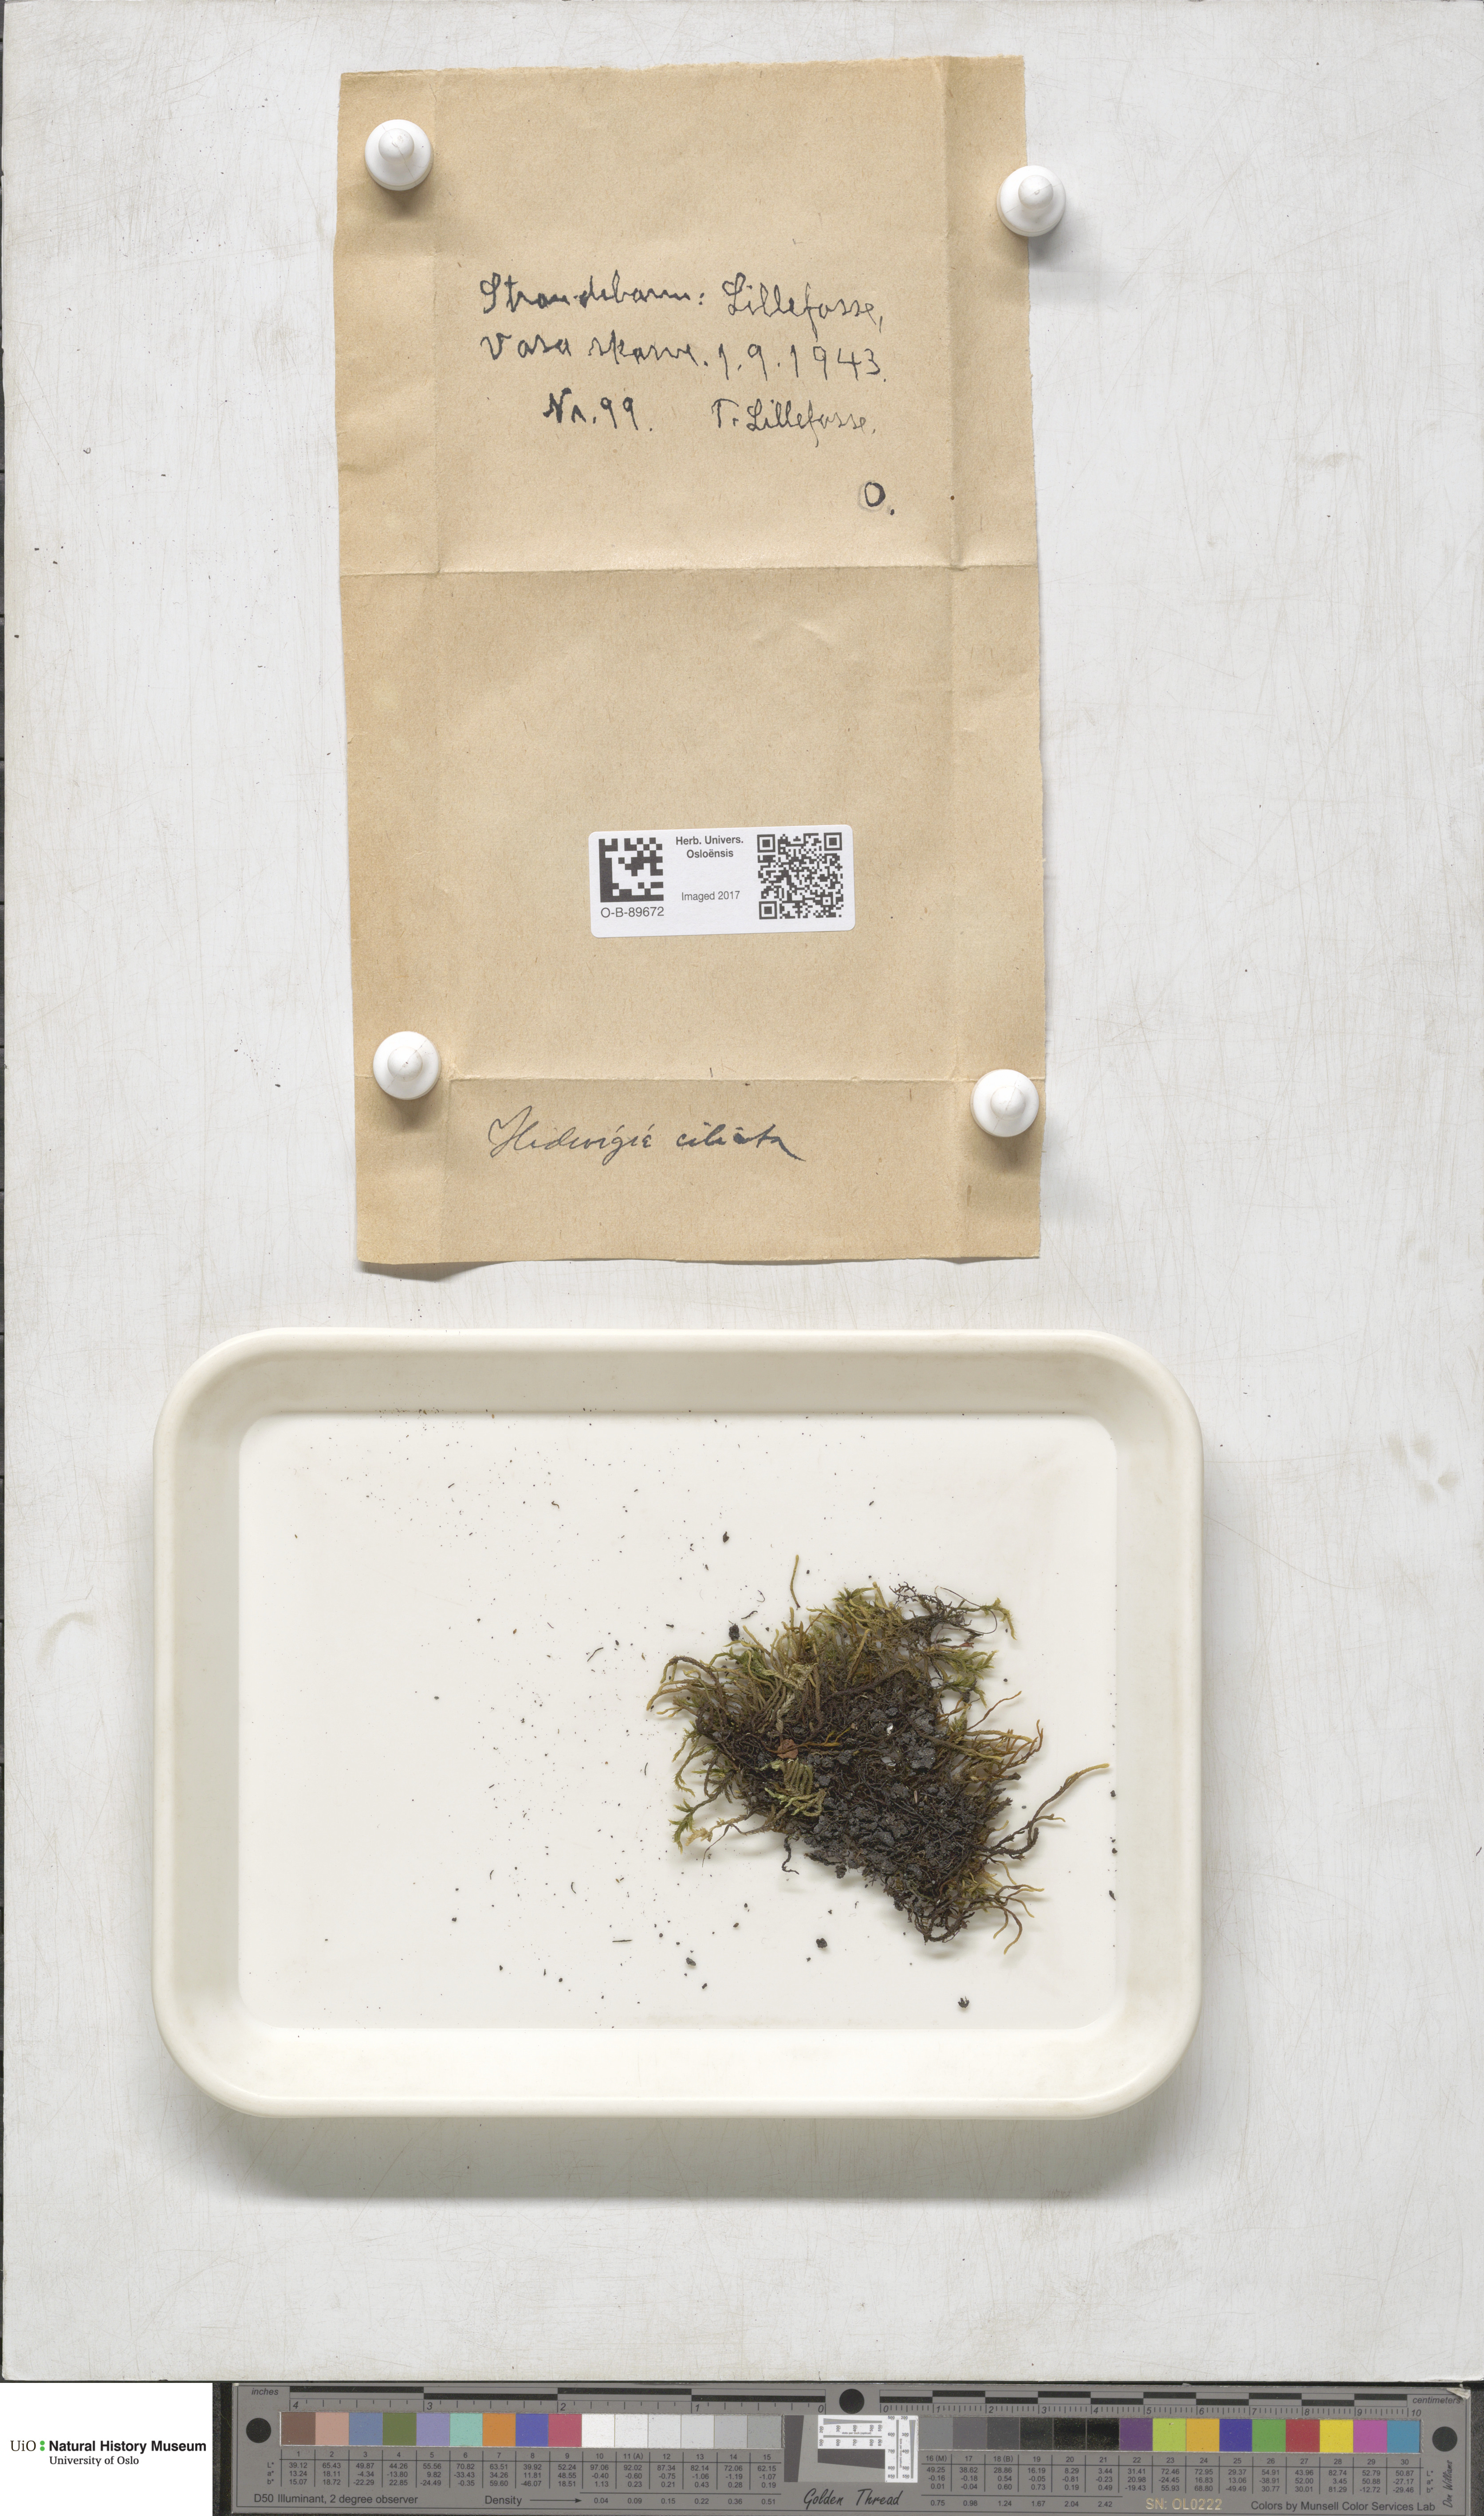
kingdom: Plantae
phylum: Bryophyta
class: Bryopsida
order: Hedwigiales
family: Hedwigiaceae
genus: Hedwigia
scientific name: Hedwigia ciliata
